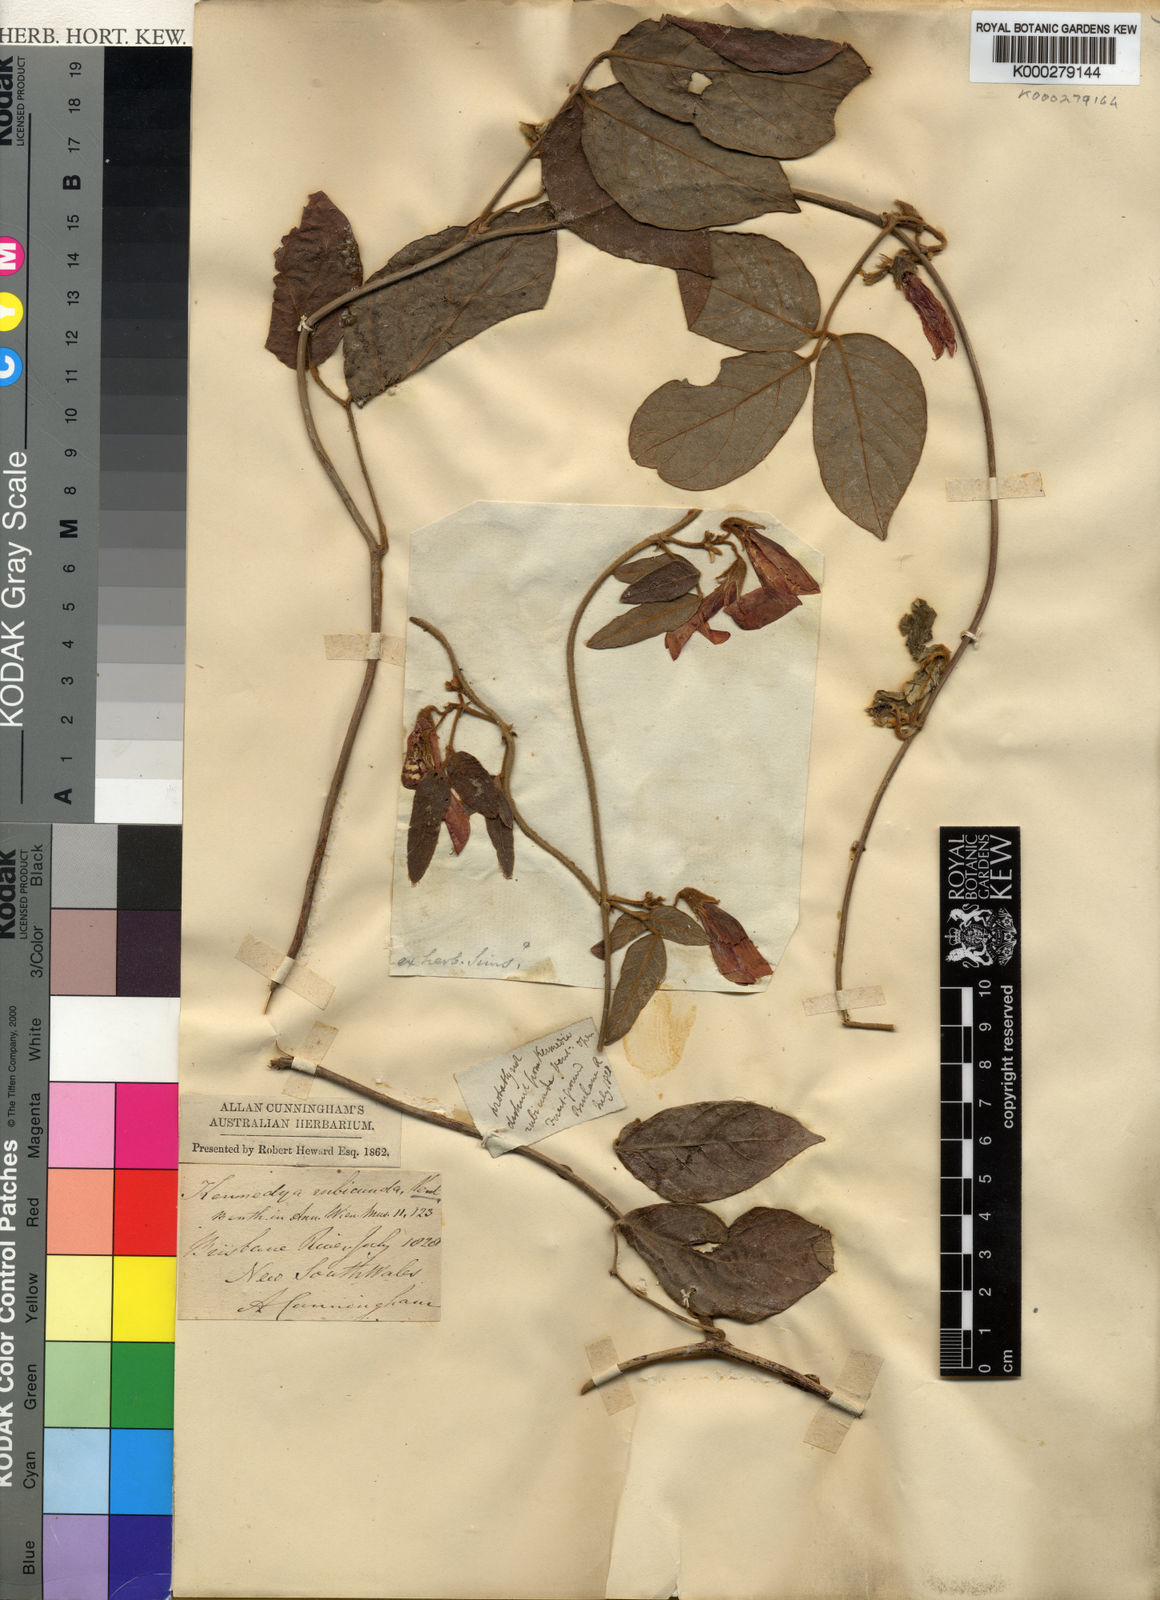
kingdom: Plantae
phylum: Tracheophyta
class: Magnoliopsida
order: Fabales
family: Fabaceae
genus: Kennedia
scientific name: Kennedia rubicunda
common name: Red kennedy-pea
